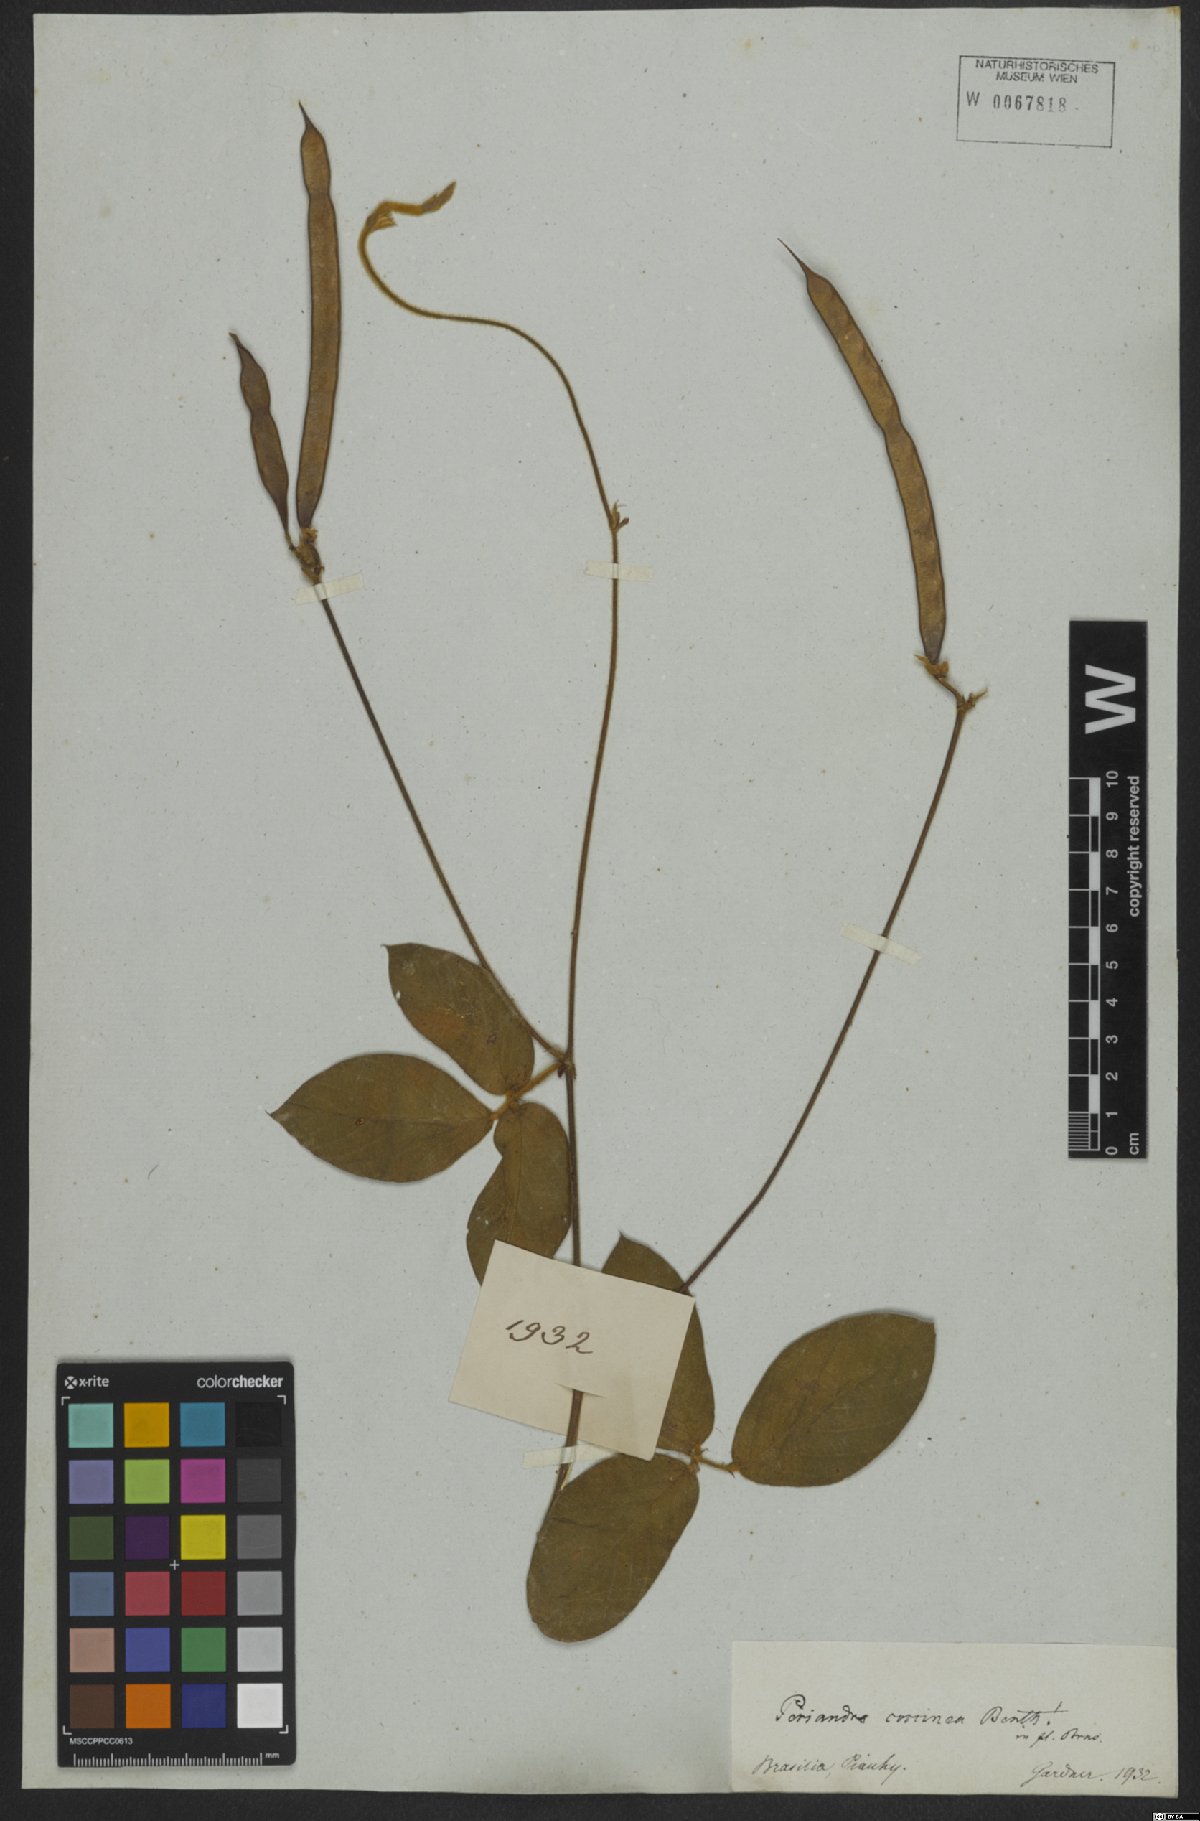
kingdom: Plantae
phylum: Tracheophyta
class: Magnoliopsida
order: Fabales
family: Fabaceae
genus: Periandra
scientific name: Periandra coccinea
